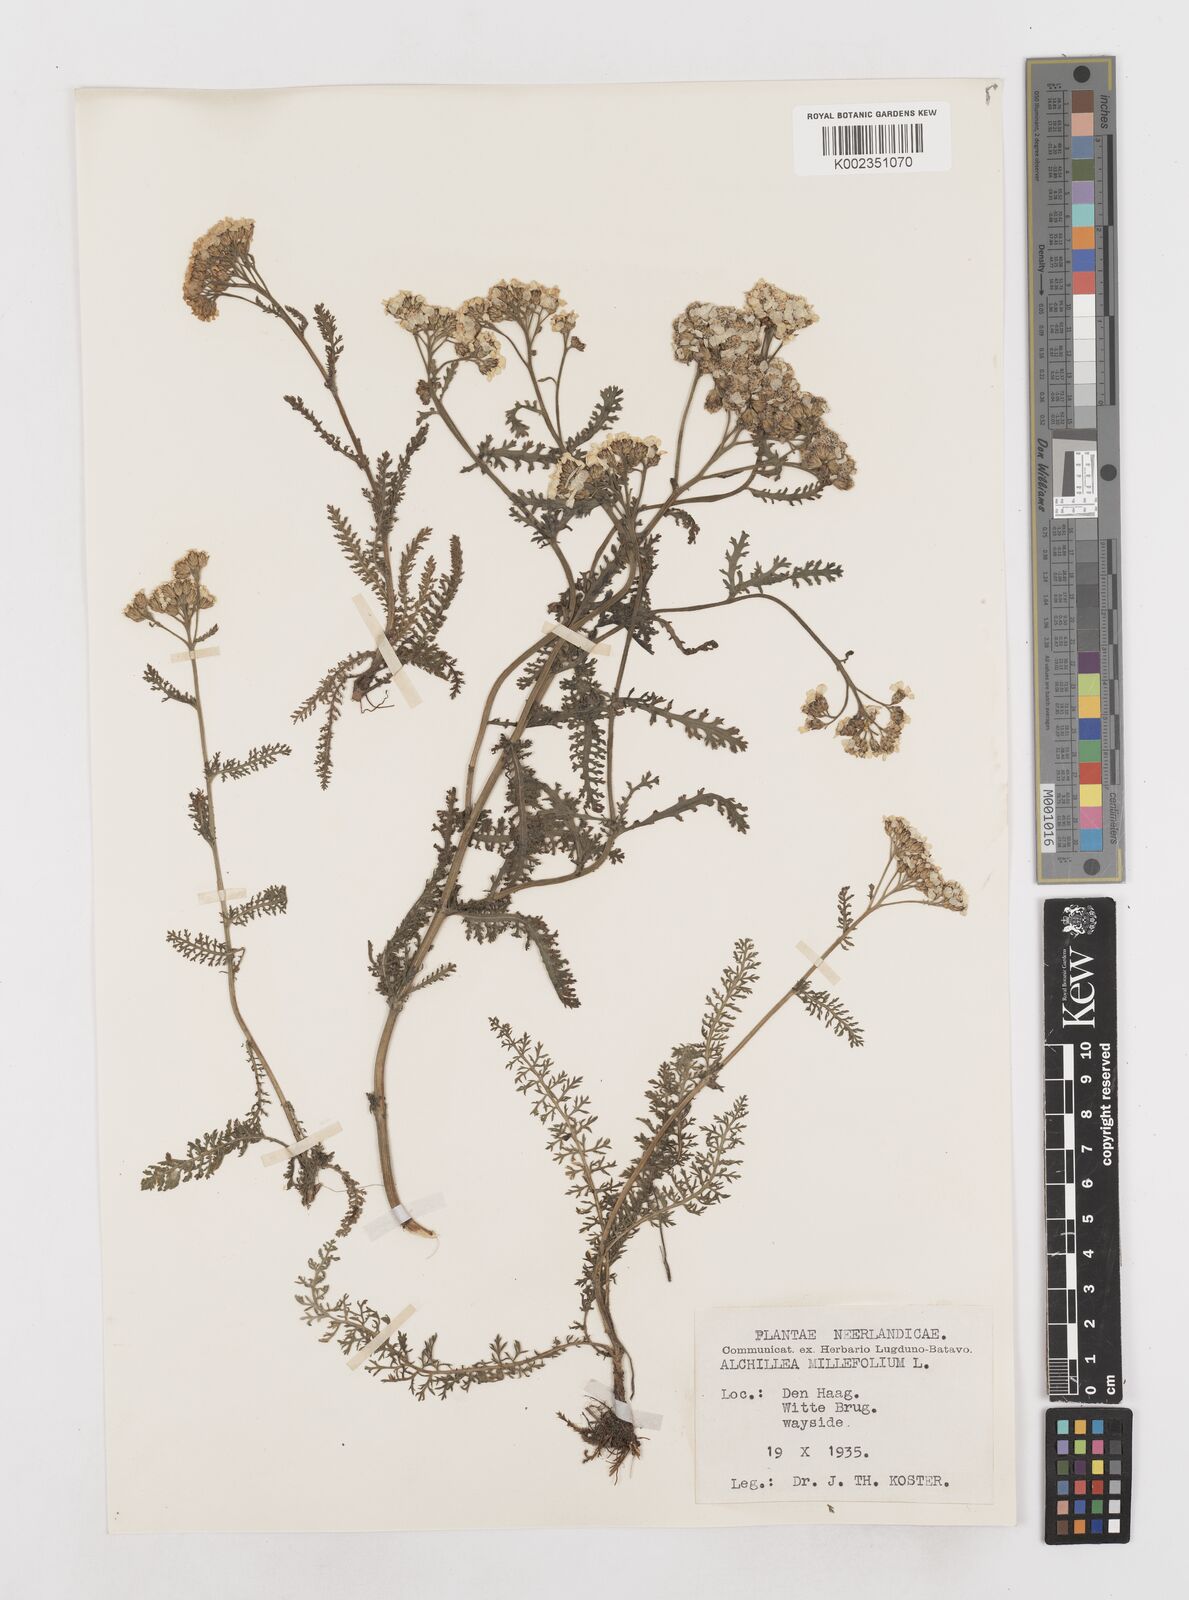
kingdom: Plantae
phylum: Tracheophyta
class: Magnoliopsida
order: Asterales
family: Asteraceae
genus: Achillea
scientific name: Achillea millefolium
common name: Yarrow
